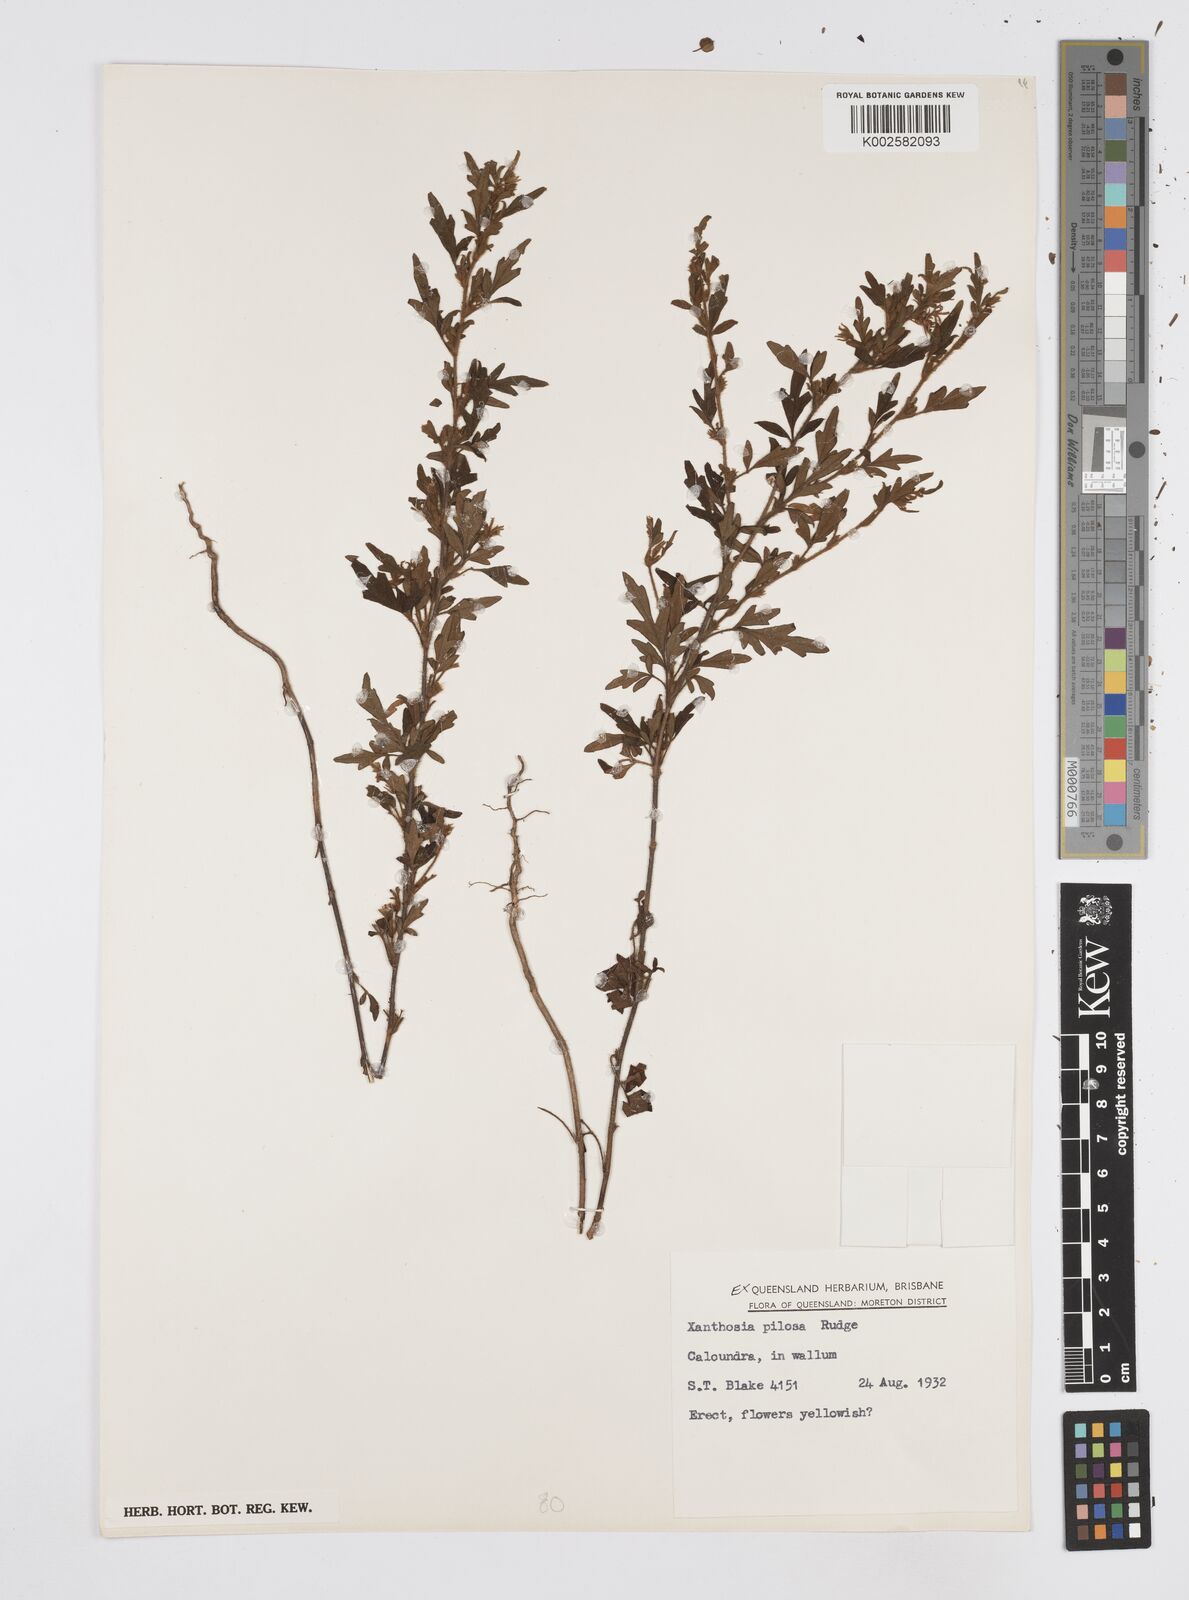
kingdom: Plantae
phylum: Tracheophyta
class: Magnoliopsida
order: Apiales
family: Apiaceae
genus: Xanthosia
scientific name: Xanthosia pilosa
